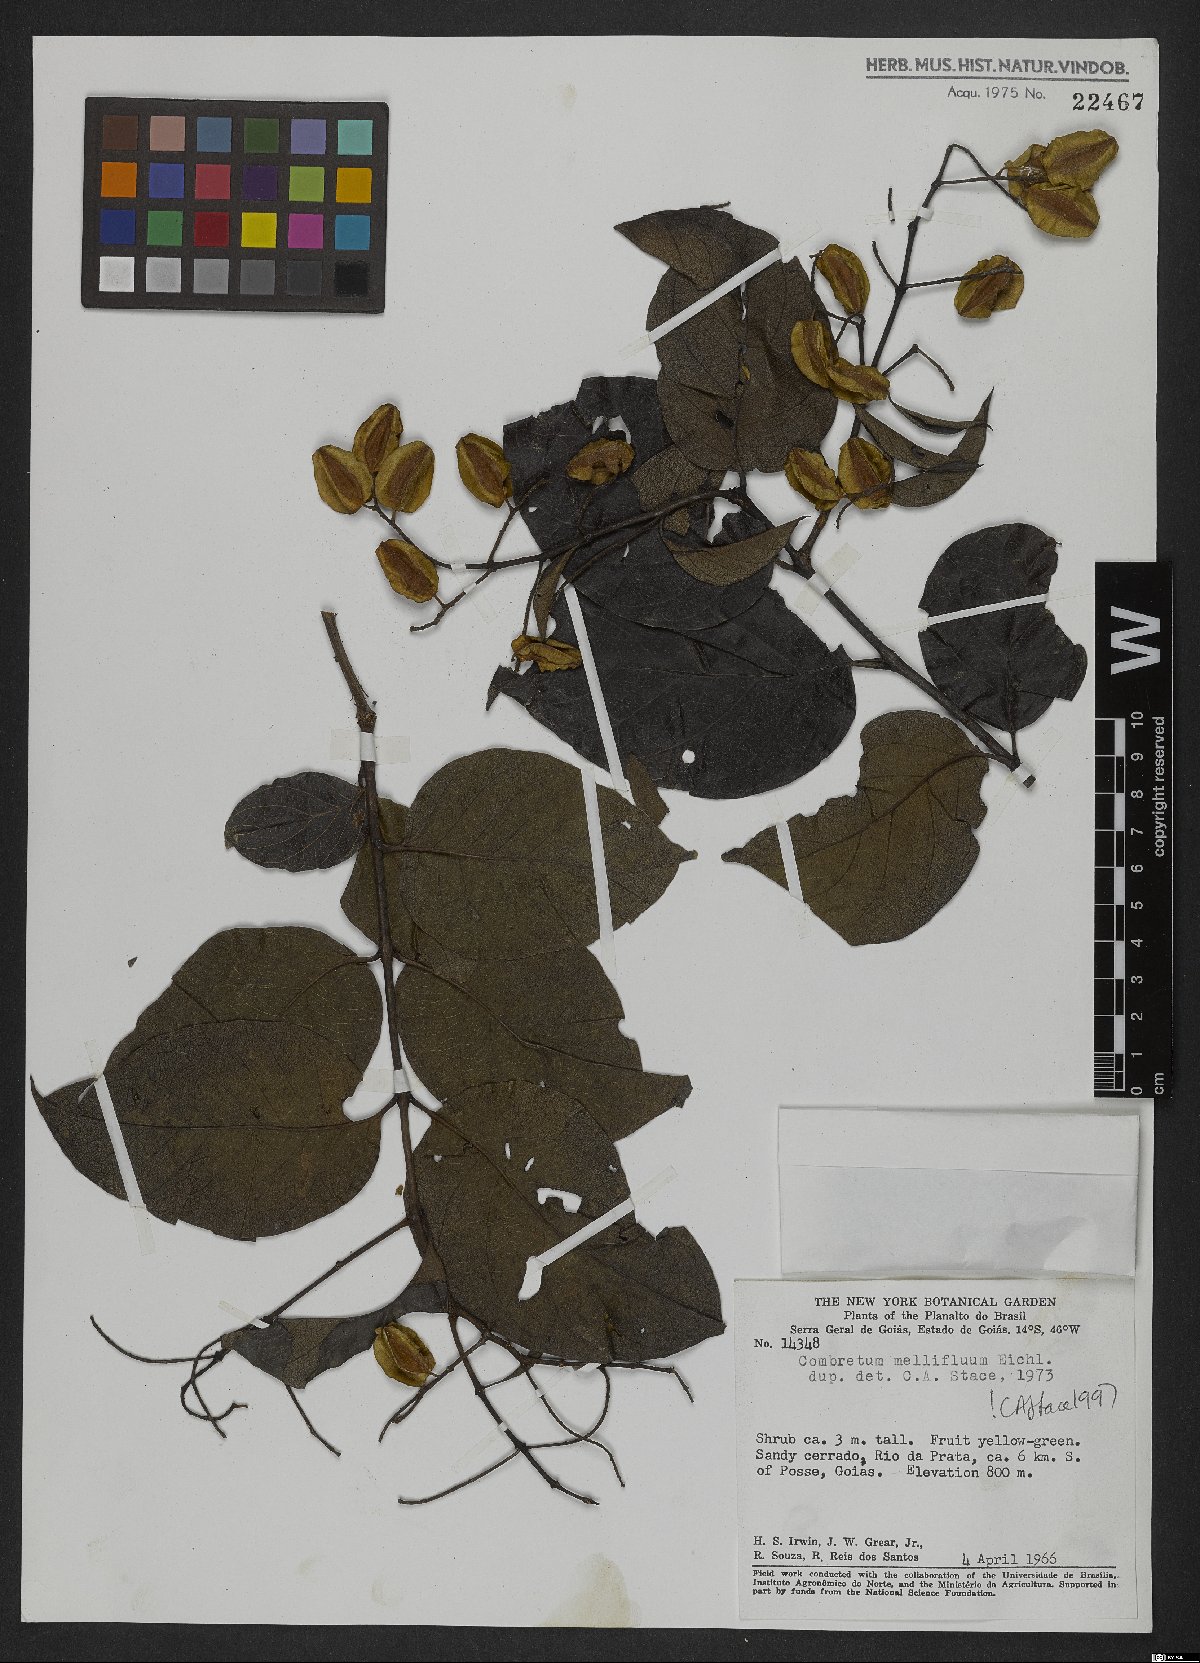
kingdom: Plantae
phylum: Tracheophyta
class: Magnoliopsida
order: Myrtales
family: Combretaceae
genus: Combretum
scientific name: Combretum mellifluum
